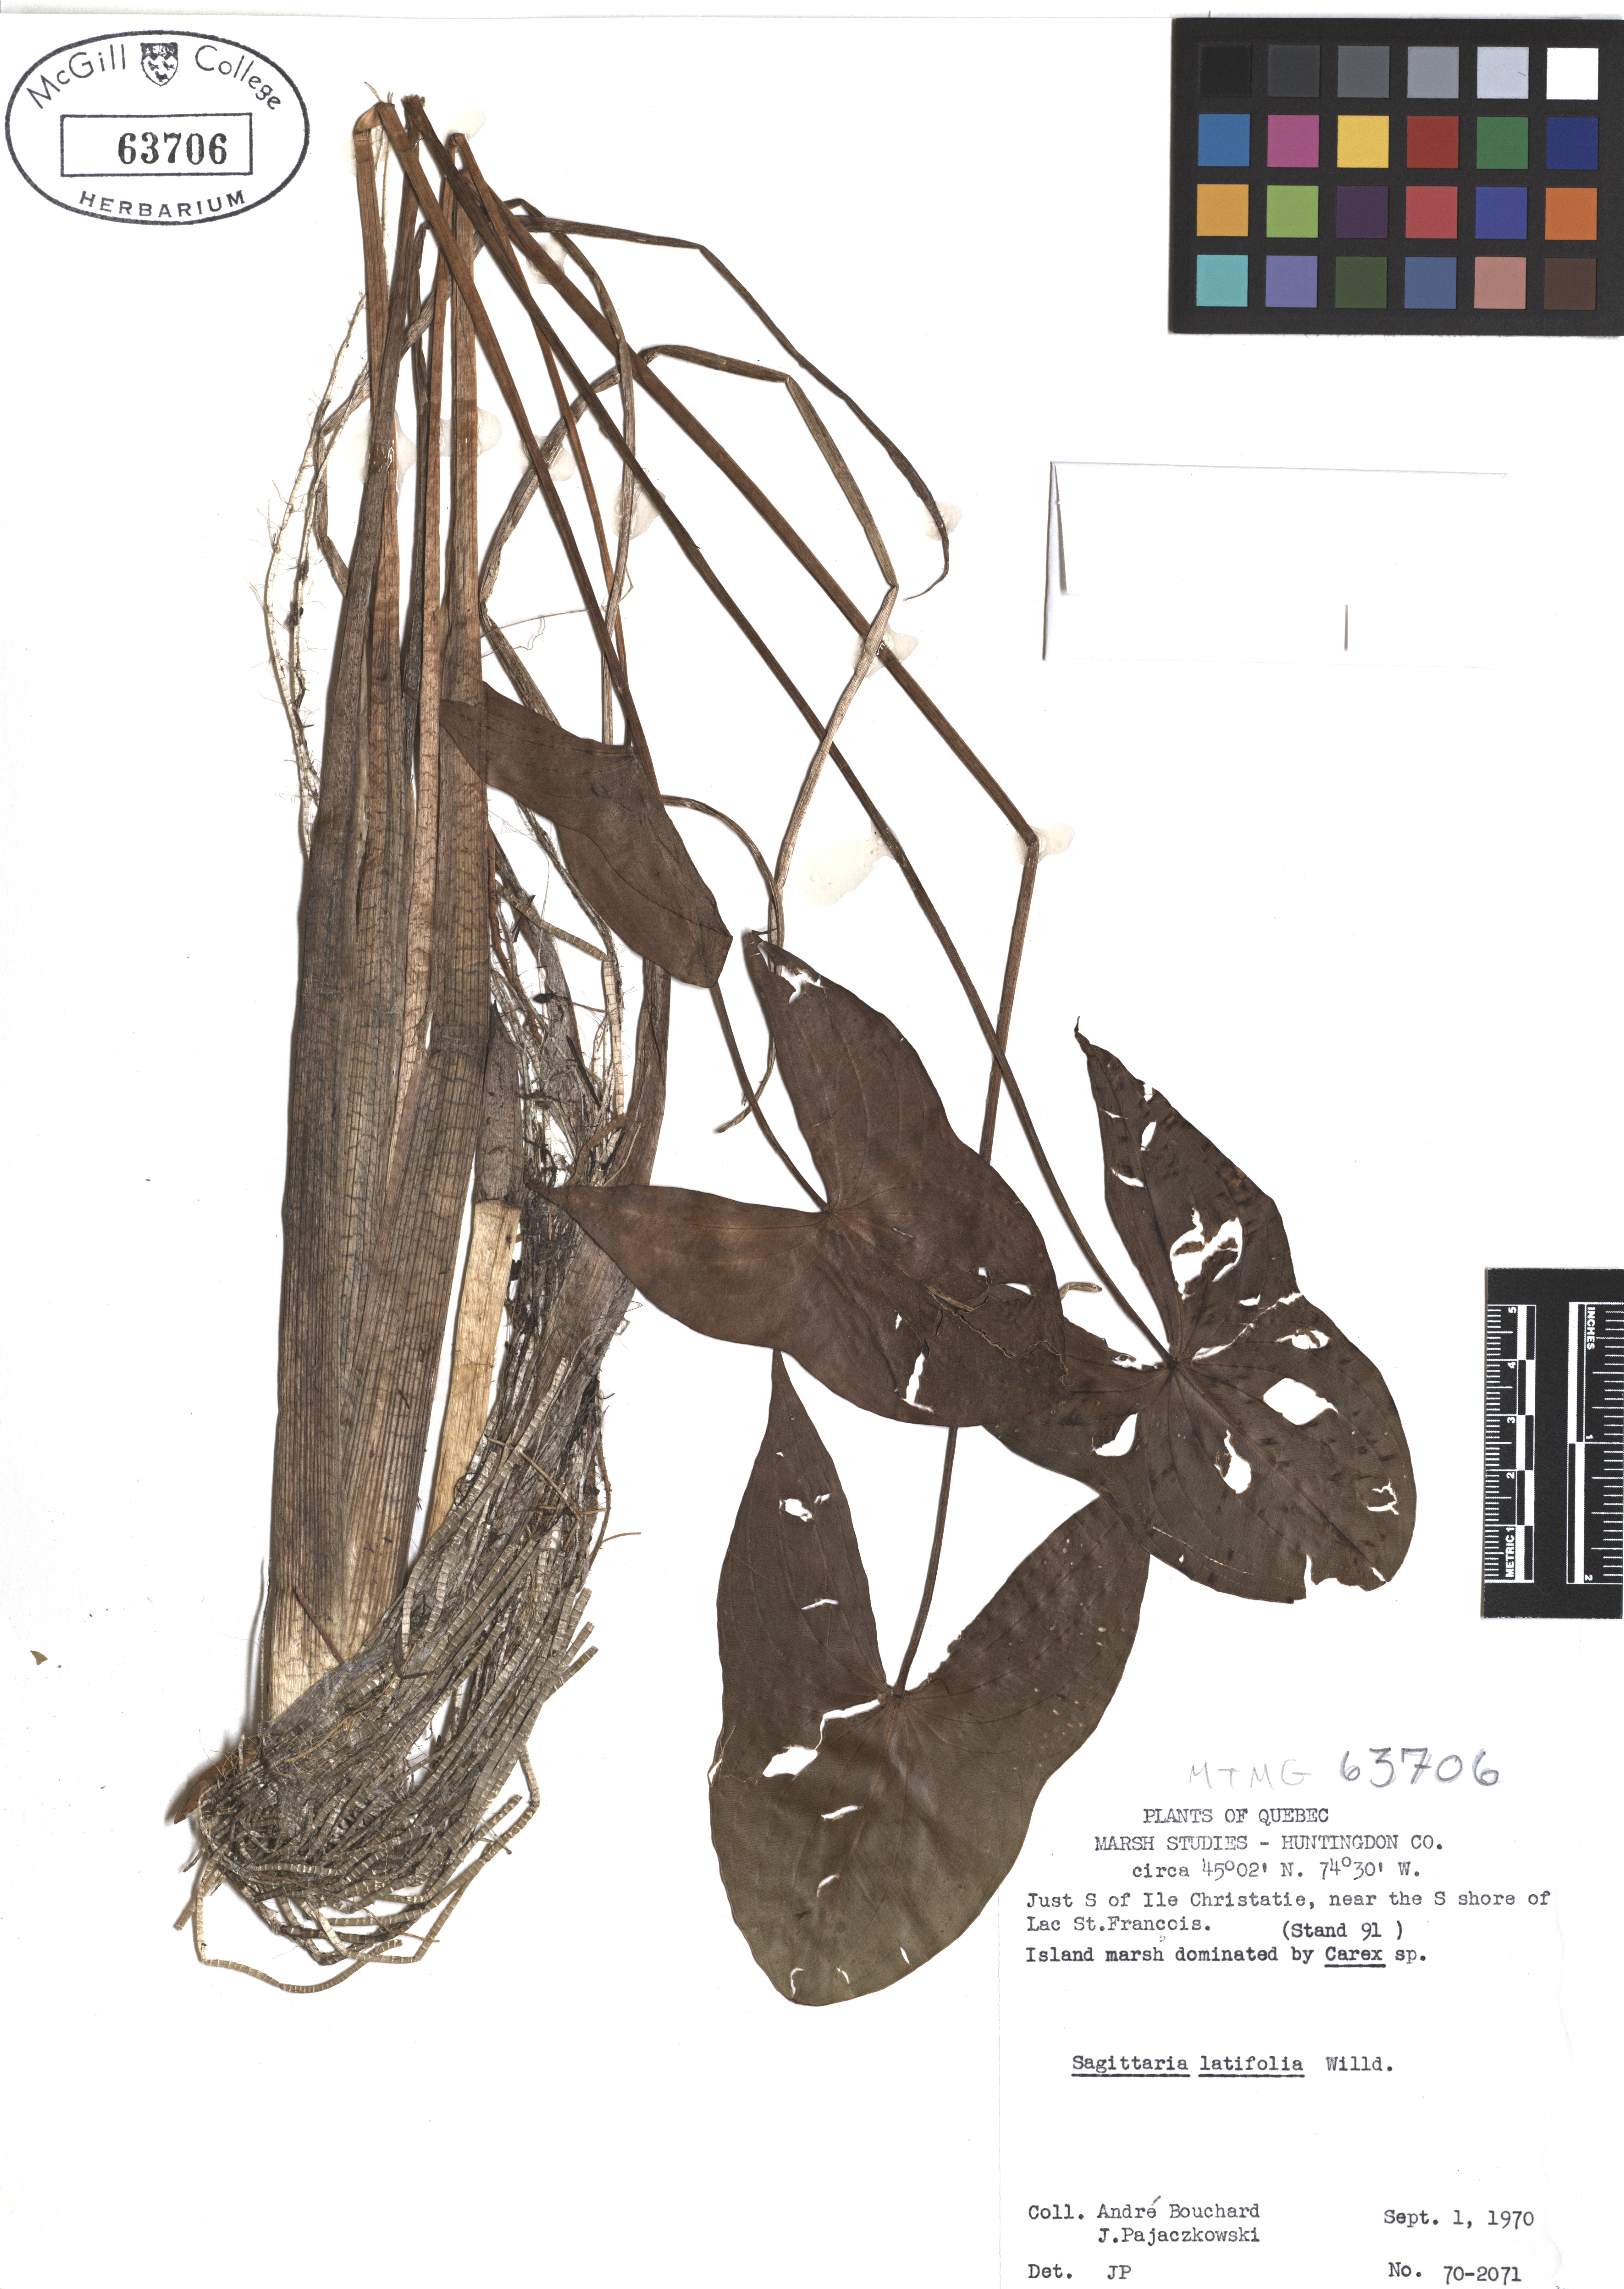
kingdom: Plantae
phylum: Tracheophyta
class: Liliopsida
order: Alismatales
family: Alismataceae
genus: Sagittaria
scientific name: Sagittaria latifolia
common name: Duck-potato
